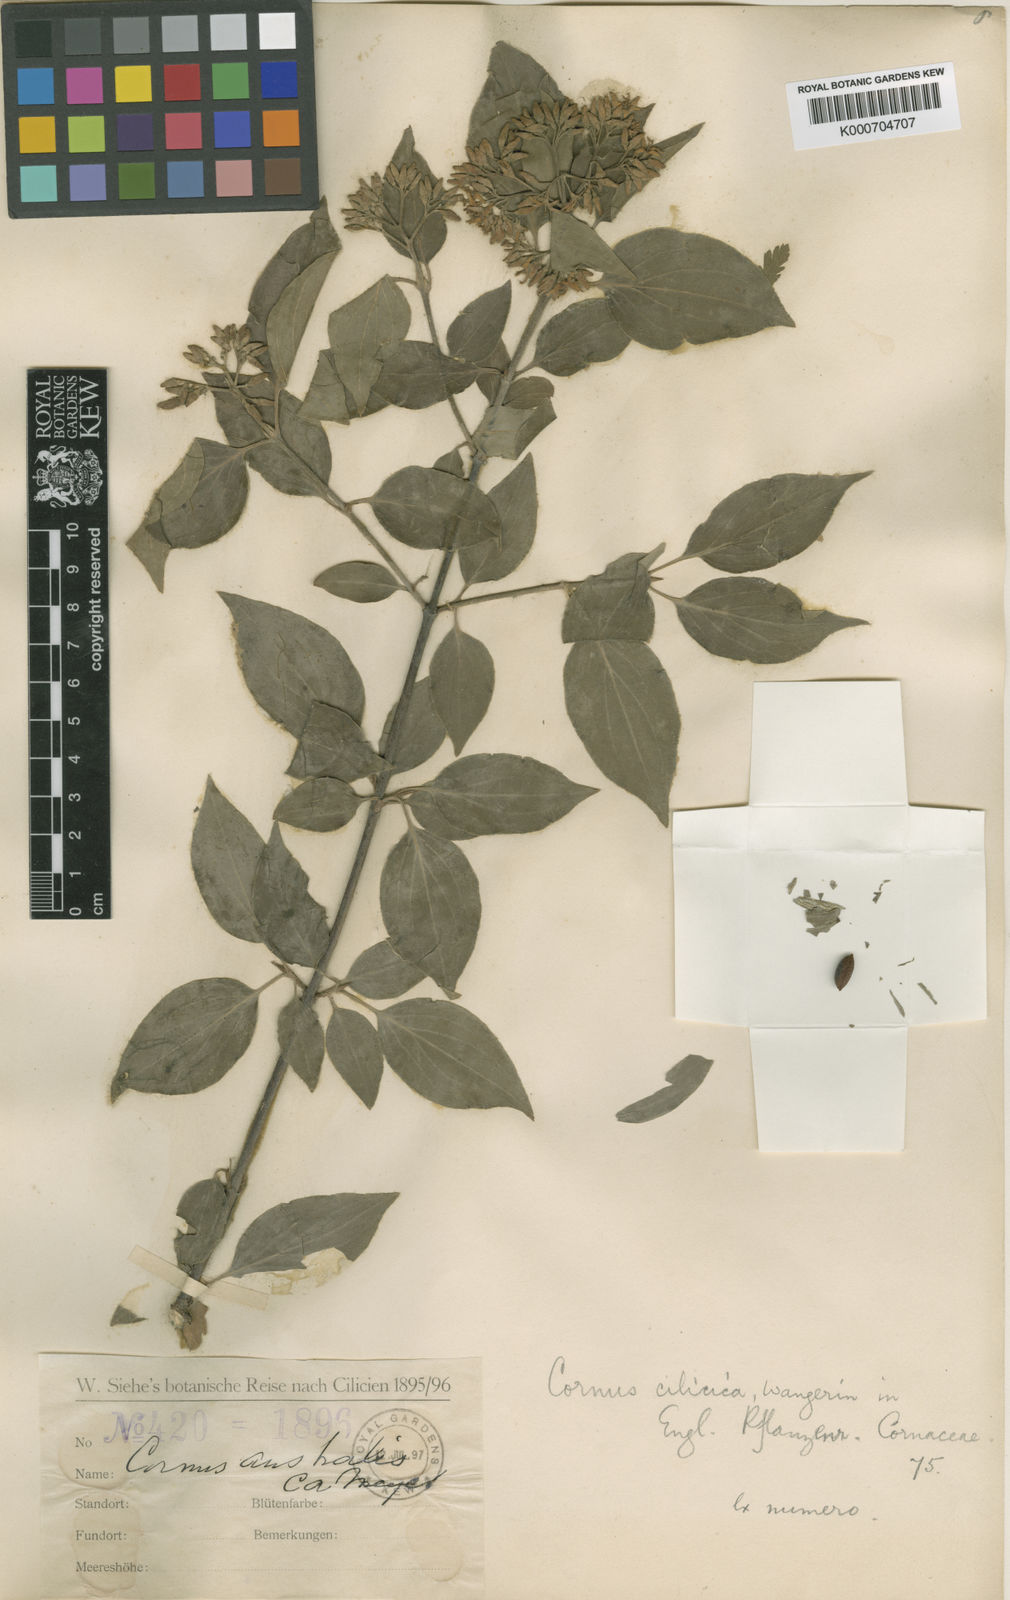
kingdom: Plantae
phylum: Tracheophyta
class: Magnoliopsida
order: Cornales
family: Cornaceae
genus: Cornus
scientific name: Cornus sanguinea
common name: Dogwood
